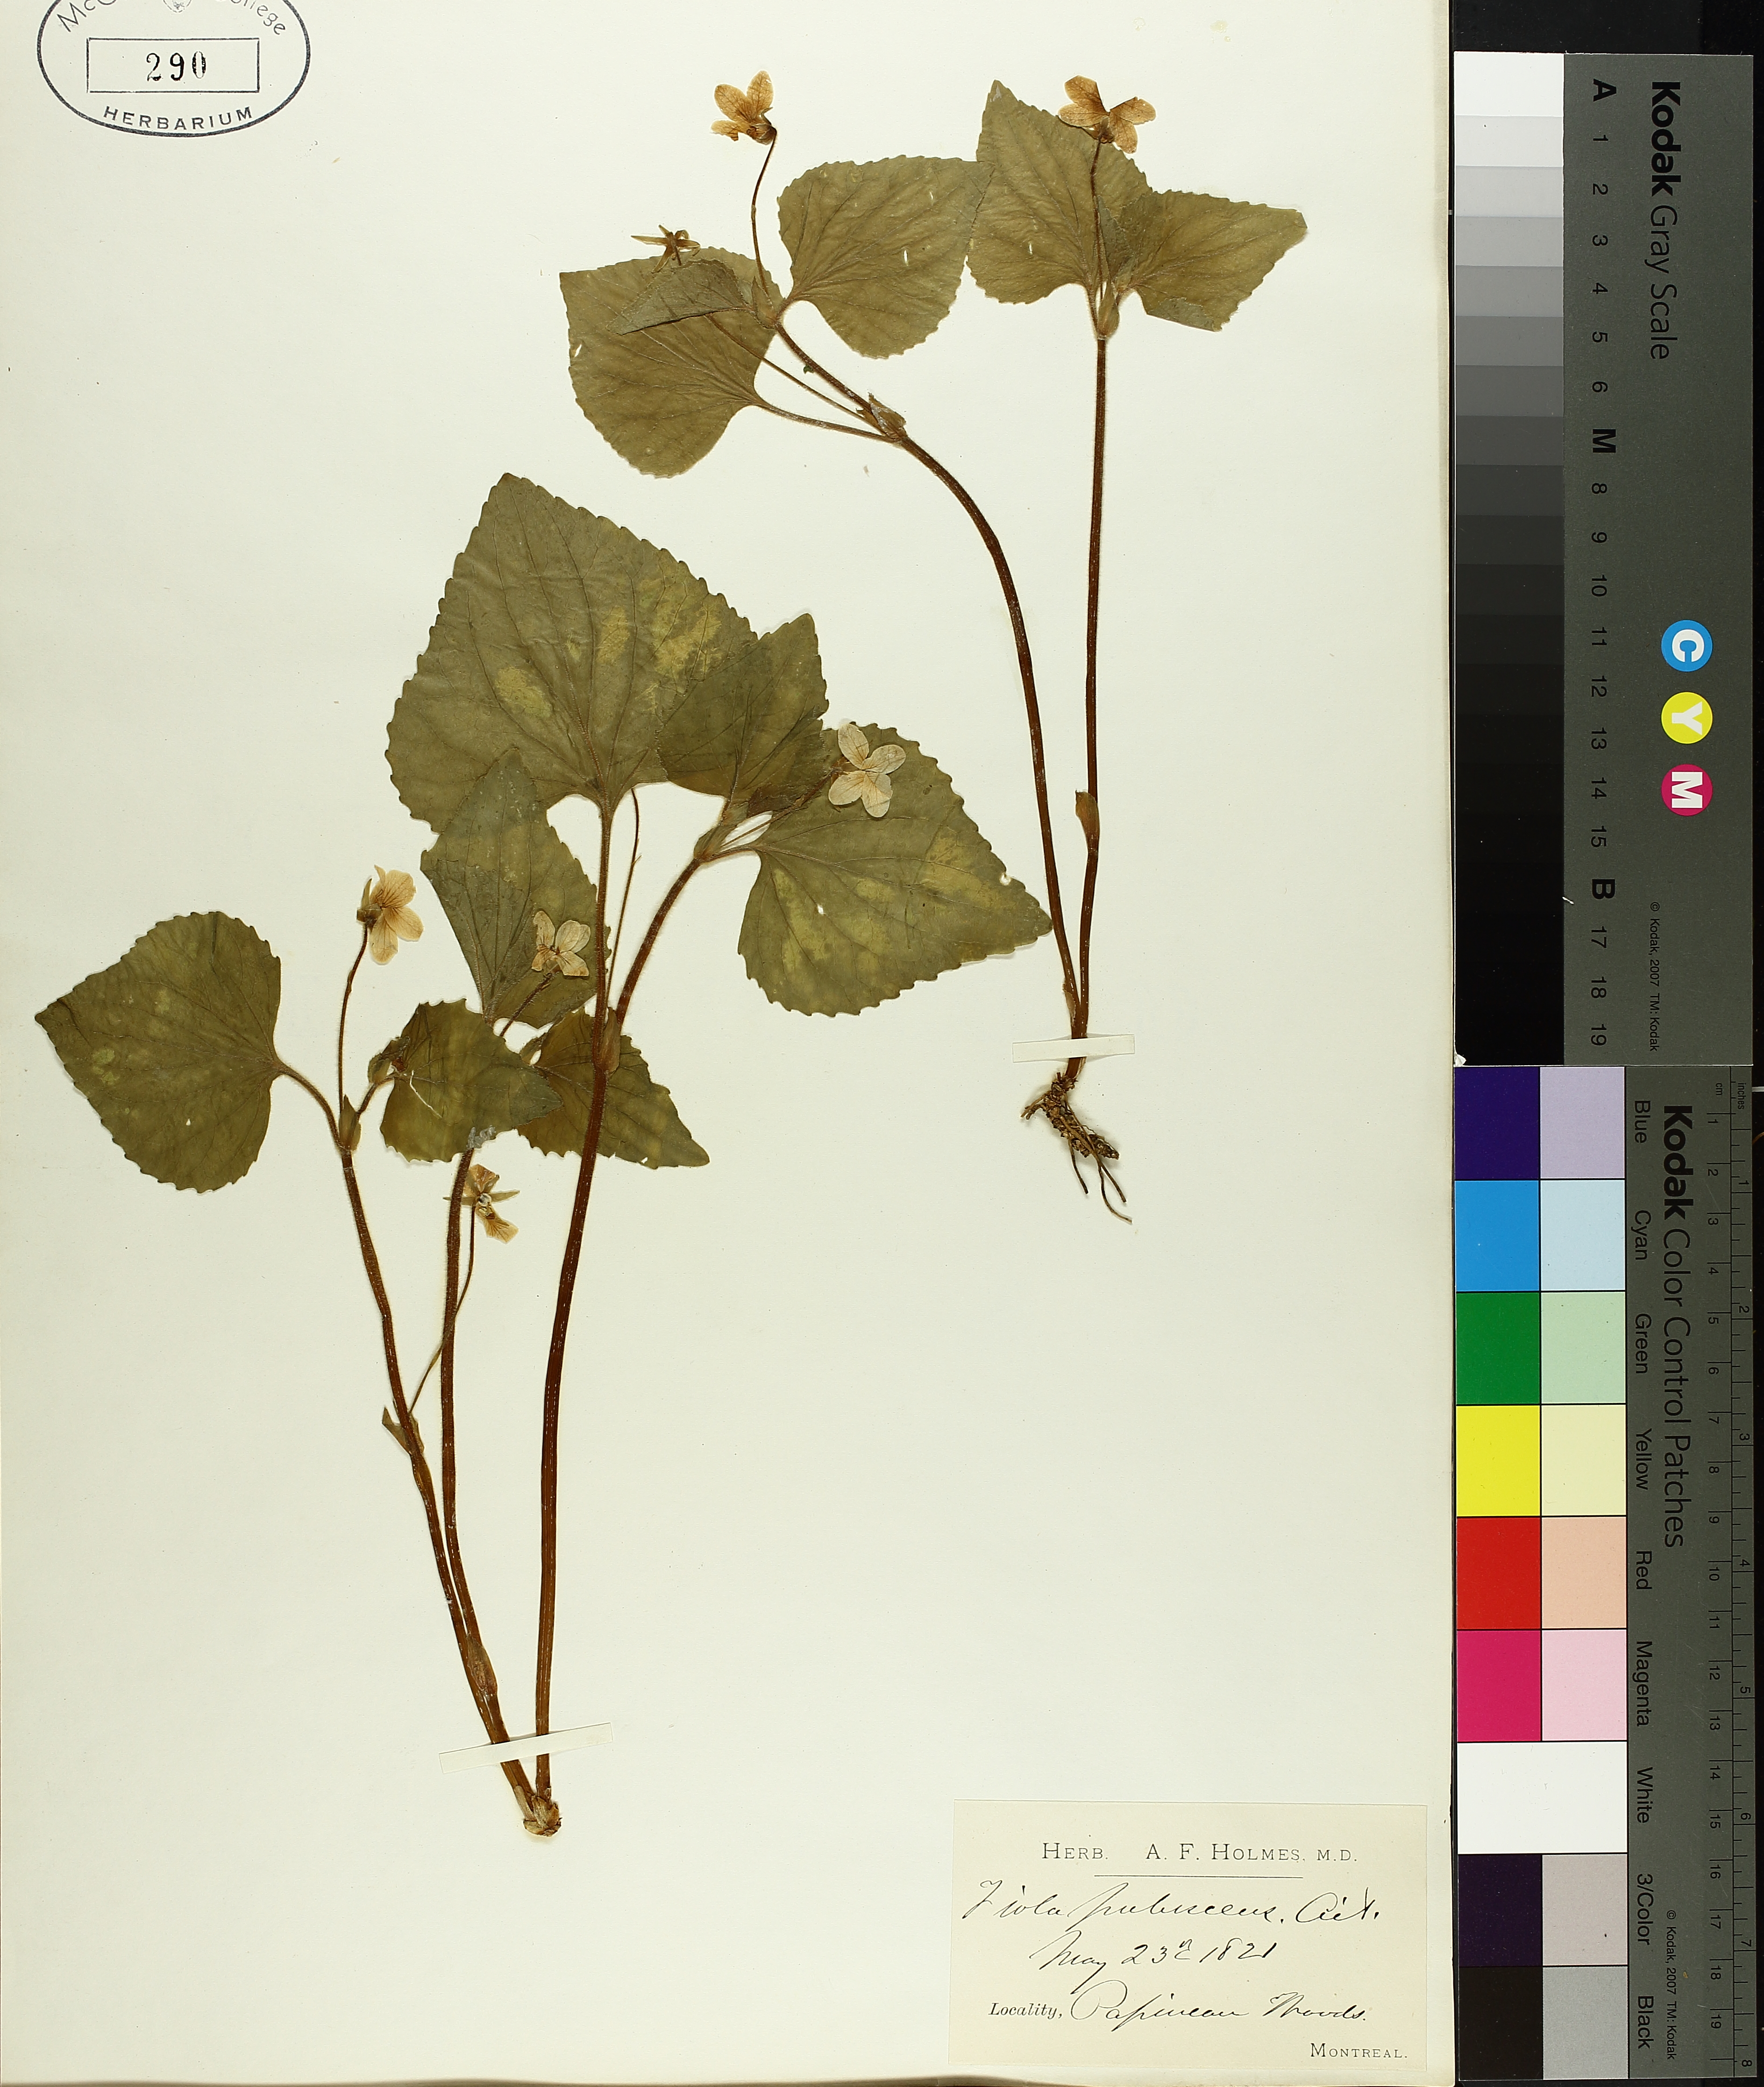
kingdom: Plantae
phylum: Tracheophyta
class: Magnoliopsida
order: Malpighiales
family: Violaceae
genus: Viola
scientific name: Viola pubescens
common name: Yellow forest violet
